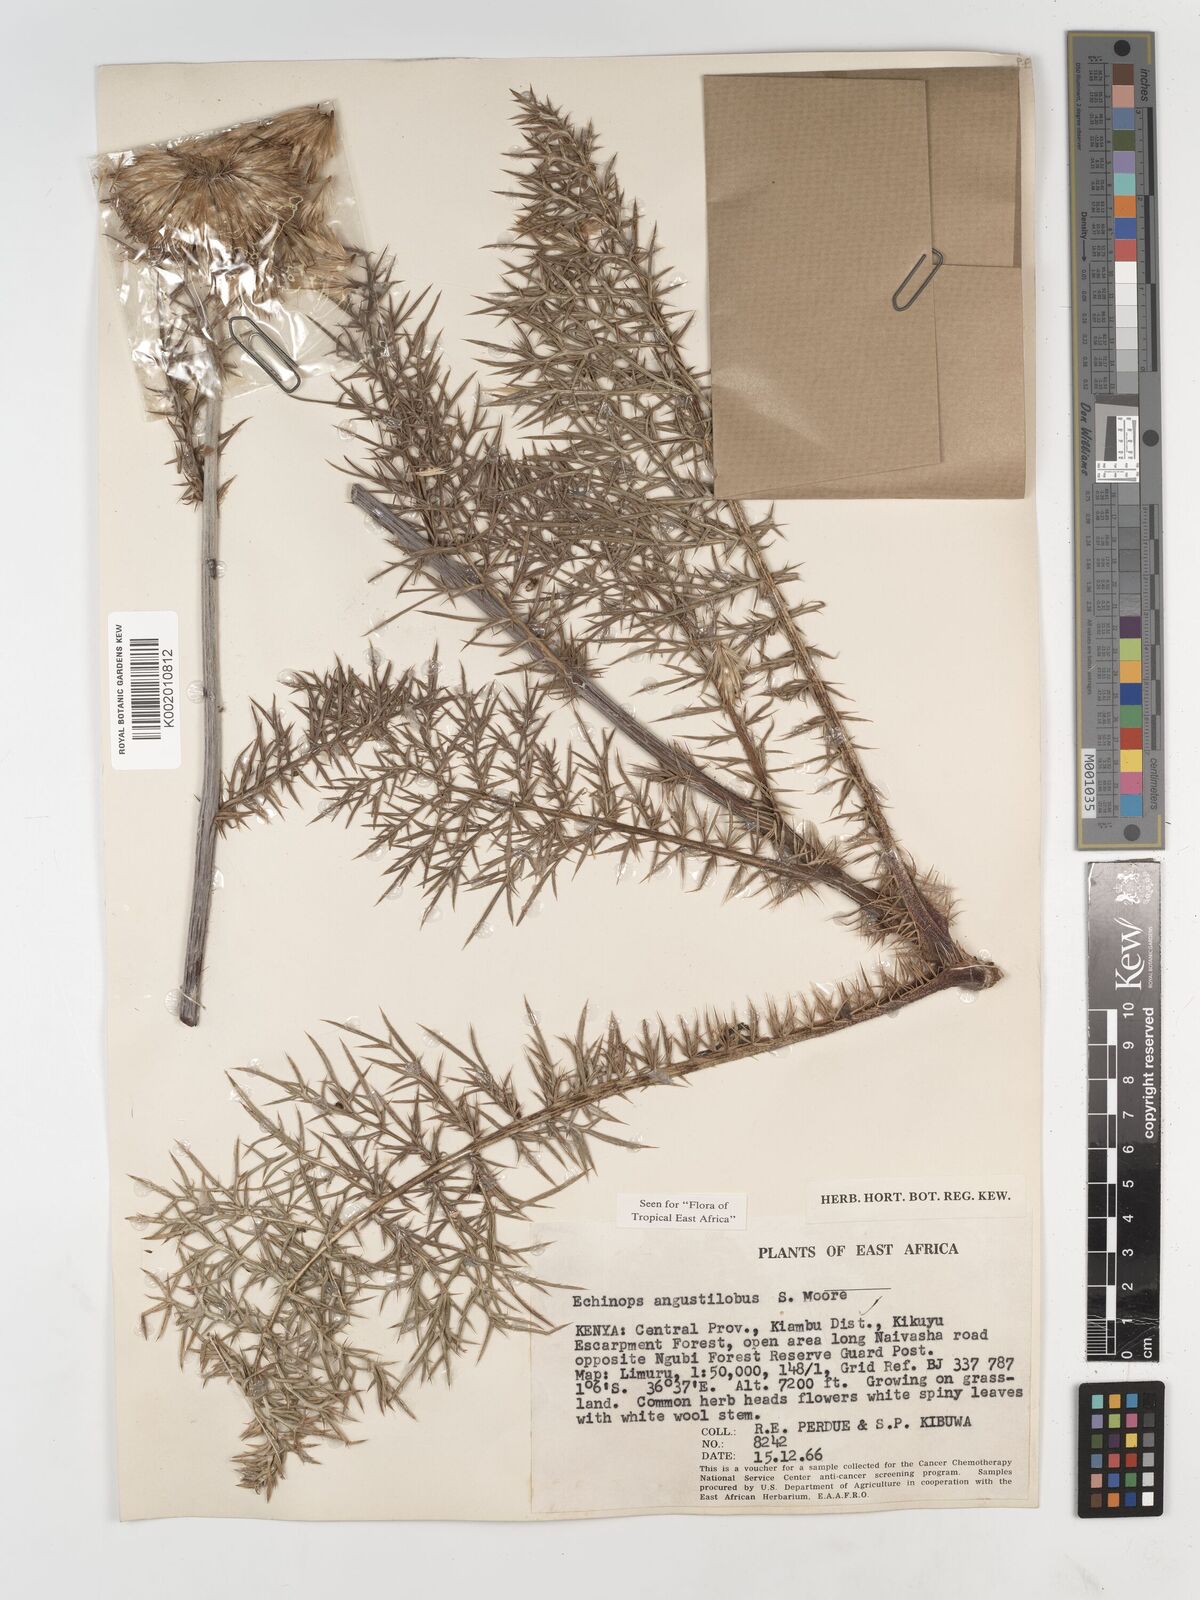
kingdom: Plantae
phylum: Tracheophyta
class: Magnoliopsida
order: Asterales
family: Asteraceae
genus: Echinops
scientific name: Echinops angustilobus
